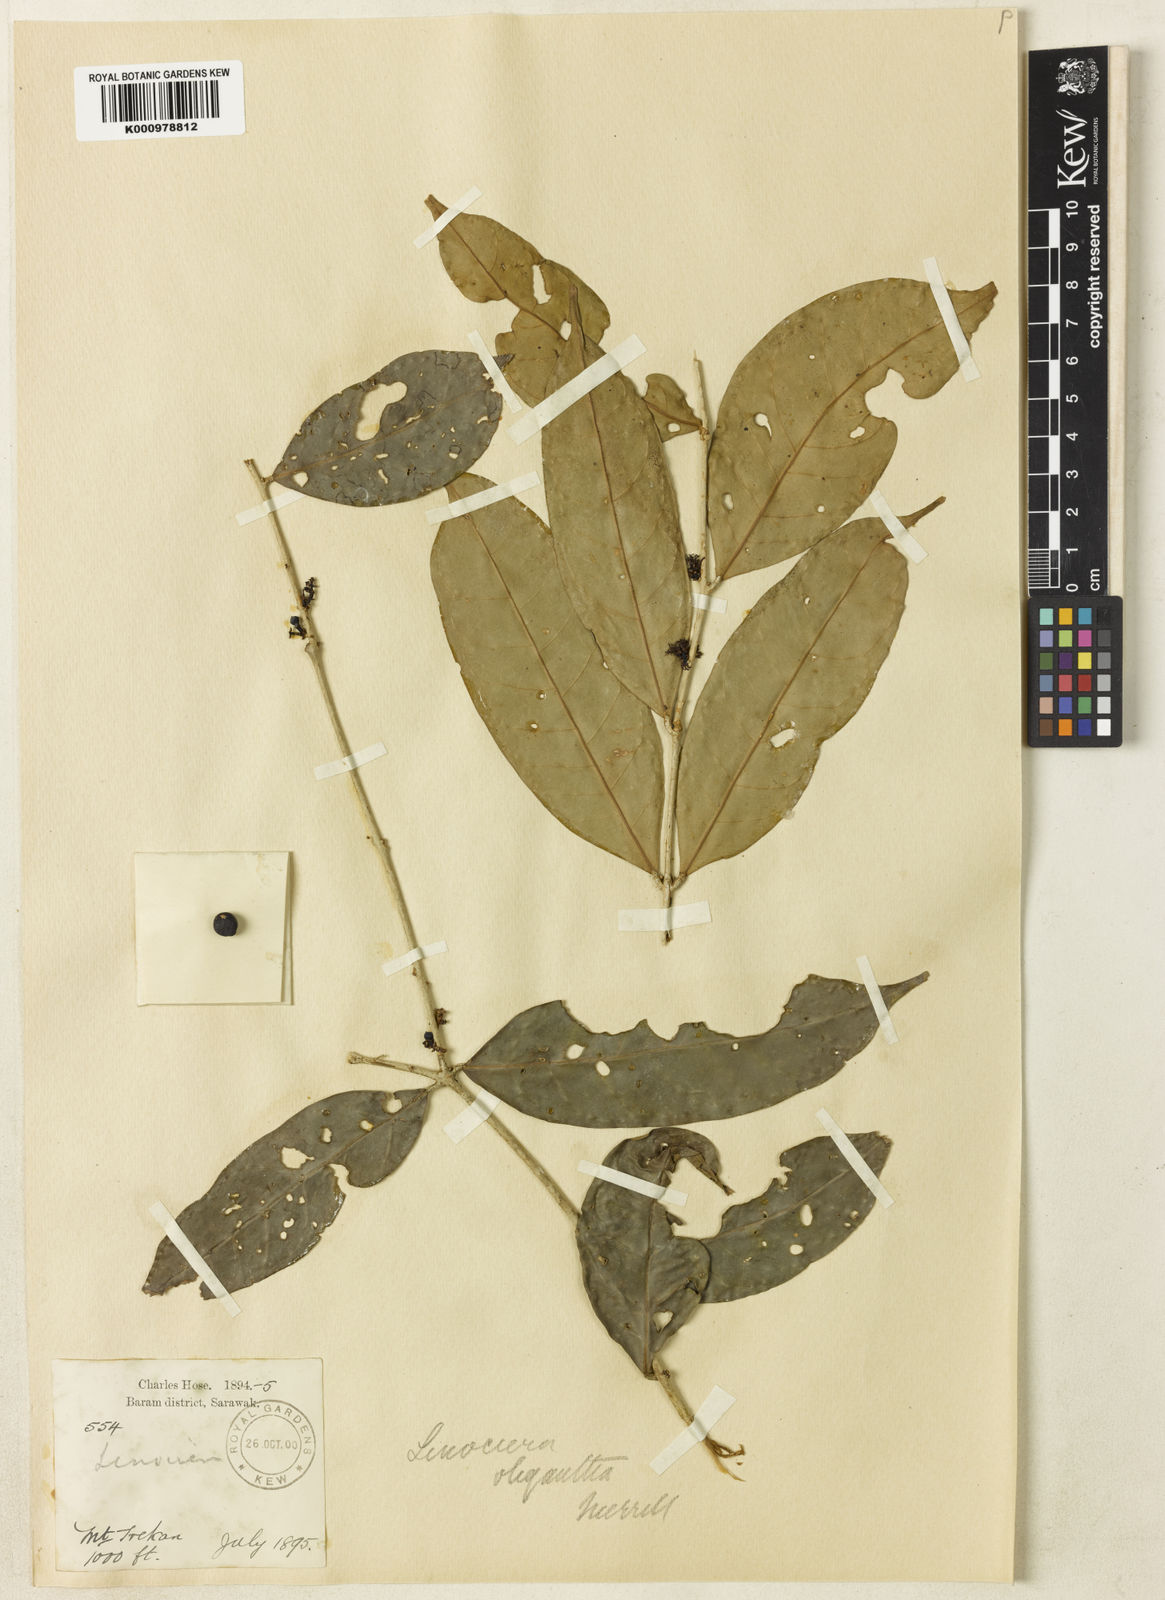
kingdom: Plantae
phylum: Tracheophyta
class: Magnoliopsida
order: Lamiales
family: Oleaceae
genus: Chionanthus
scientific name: Chionanthus spicatus
